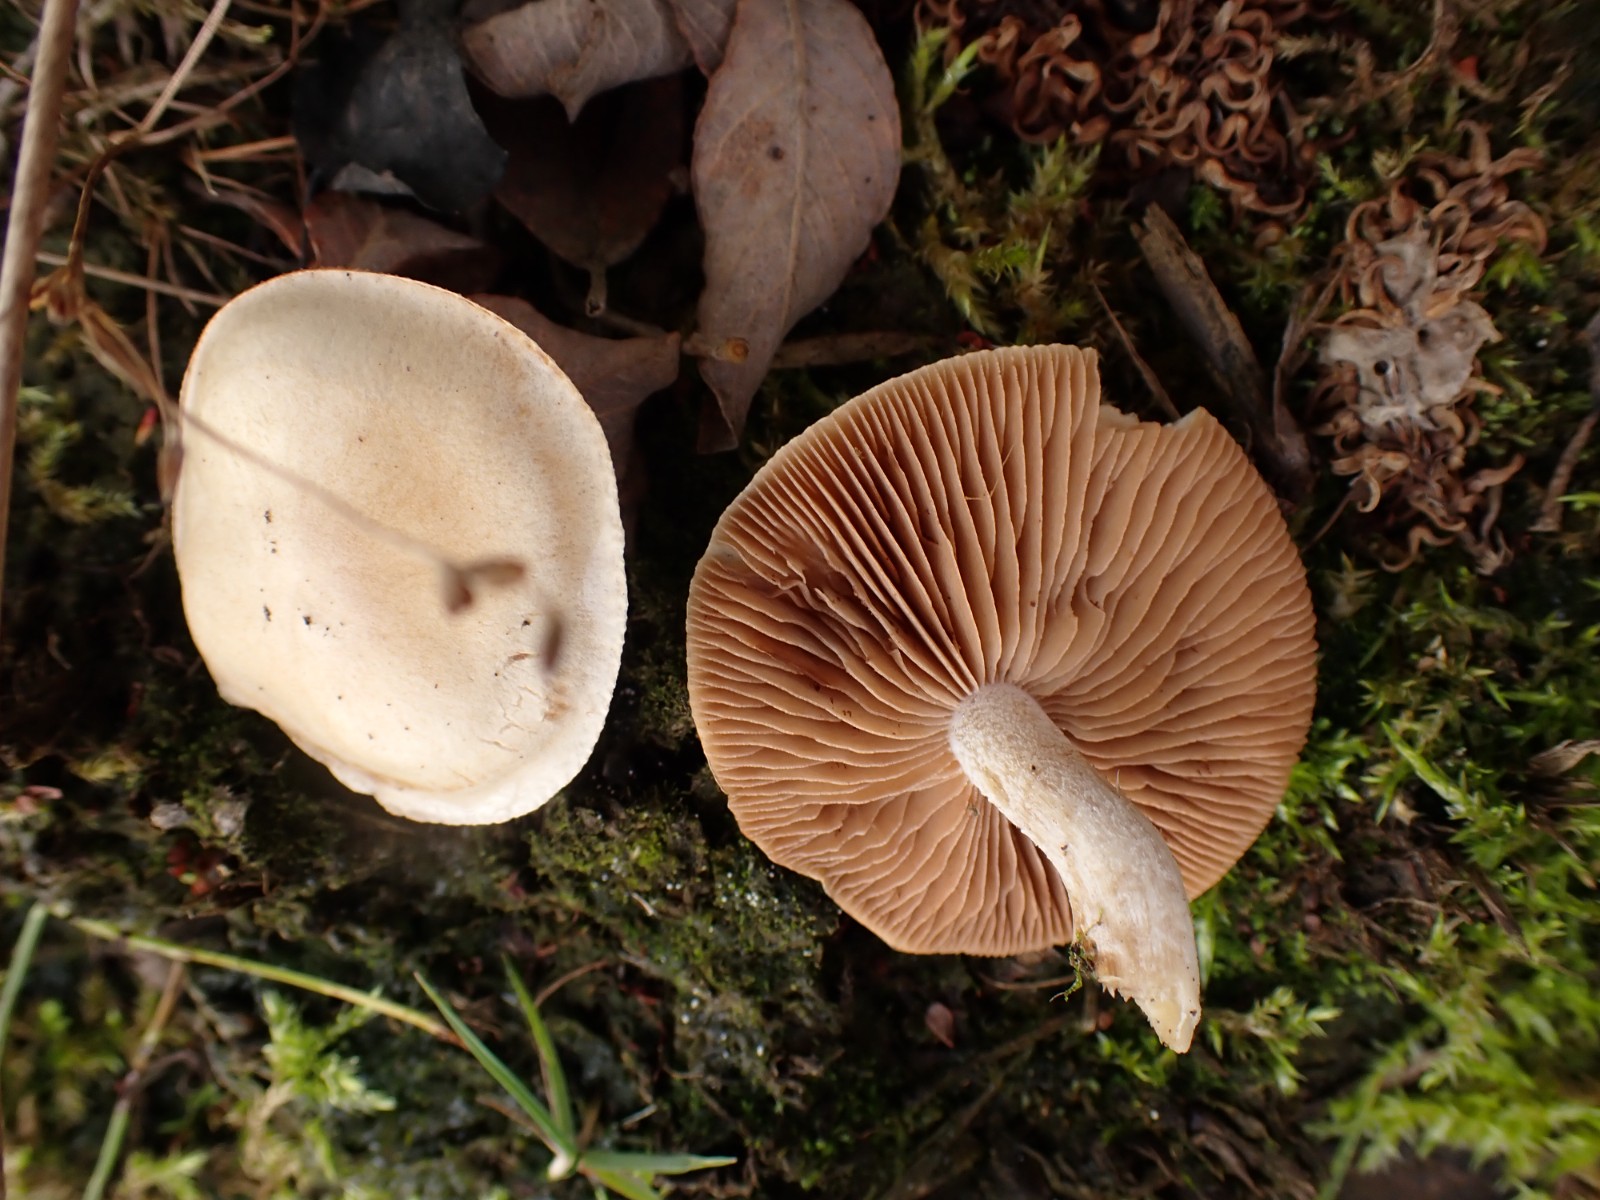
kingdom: Fungi
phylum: Basidiomycota
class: Agaricomycetes
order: Agaricales
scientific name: Agaricales
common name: champignonordenen
